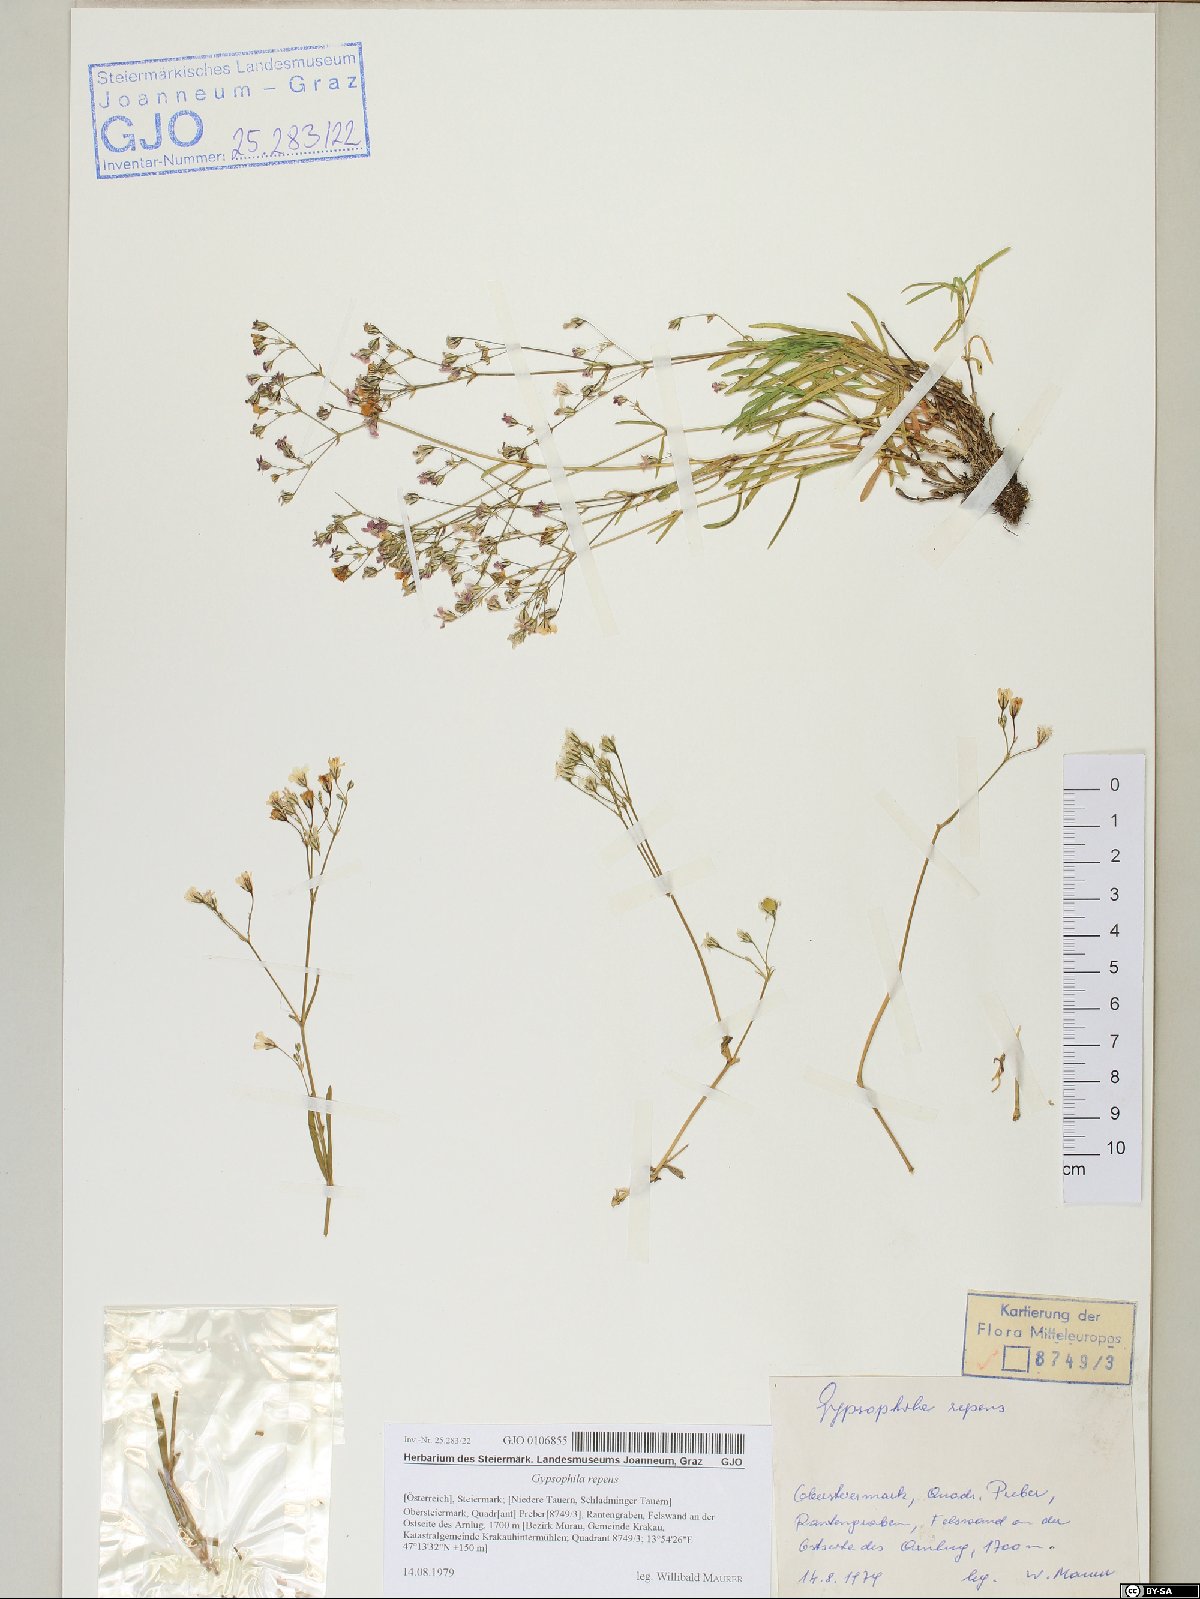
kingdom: Plantae
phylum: Tracheophyta
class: Magnoliopsida
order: Caryophyllales
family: Caryophyllaceae
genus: Gypsophila
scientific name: Gypsophila repens
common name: Creeping baby's-breath
